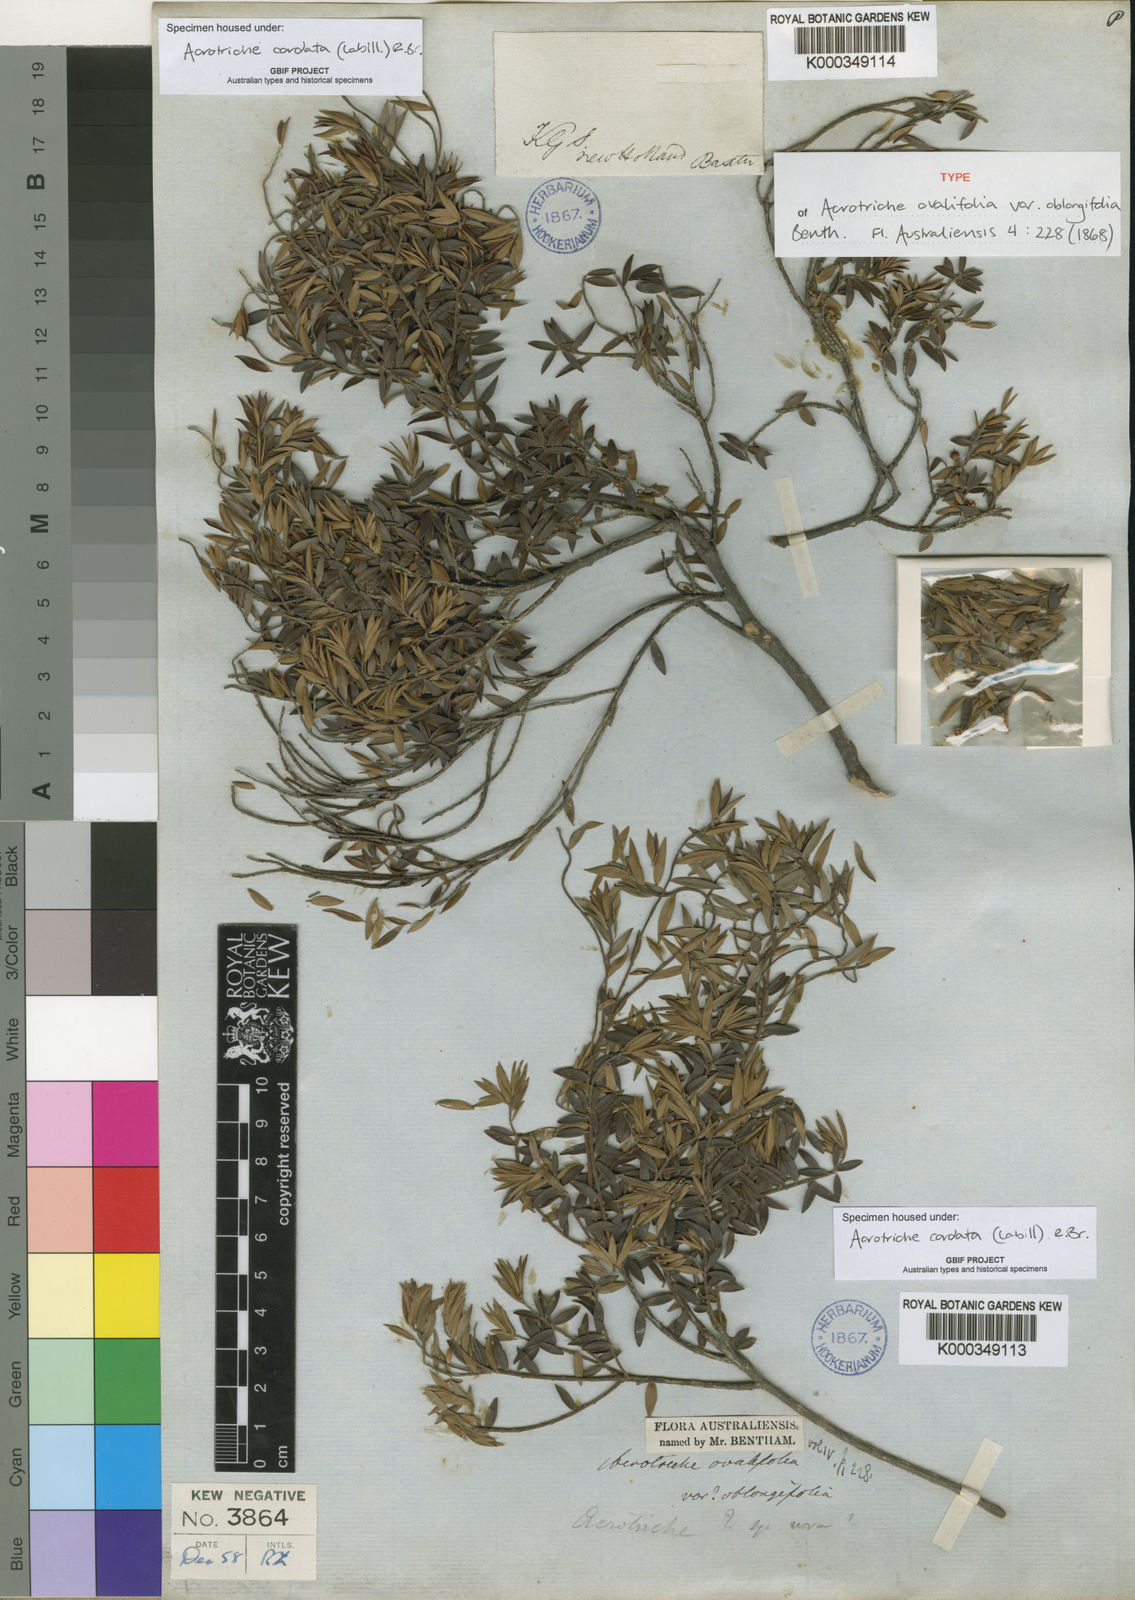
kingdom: Plantae
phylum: Tracheophyta
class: Magnoliopsida
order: Ericales
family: Ericaceae
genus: Acrotriche
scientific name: Acrotriche cordata
